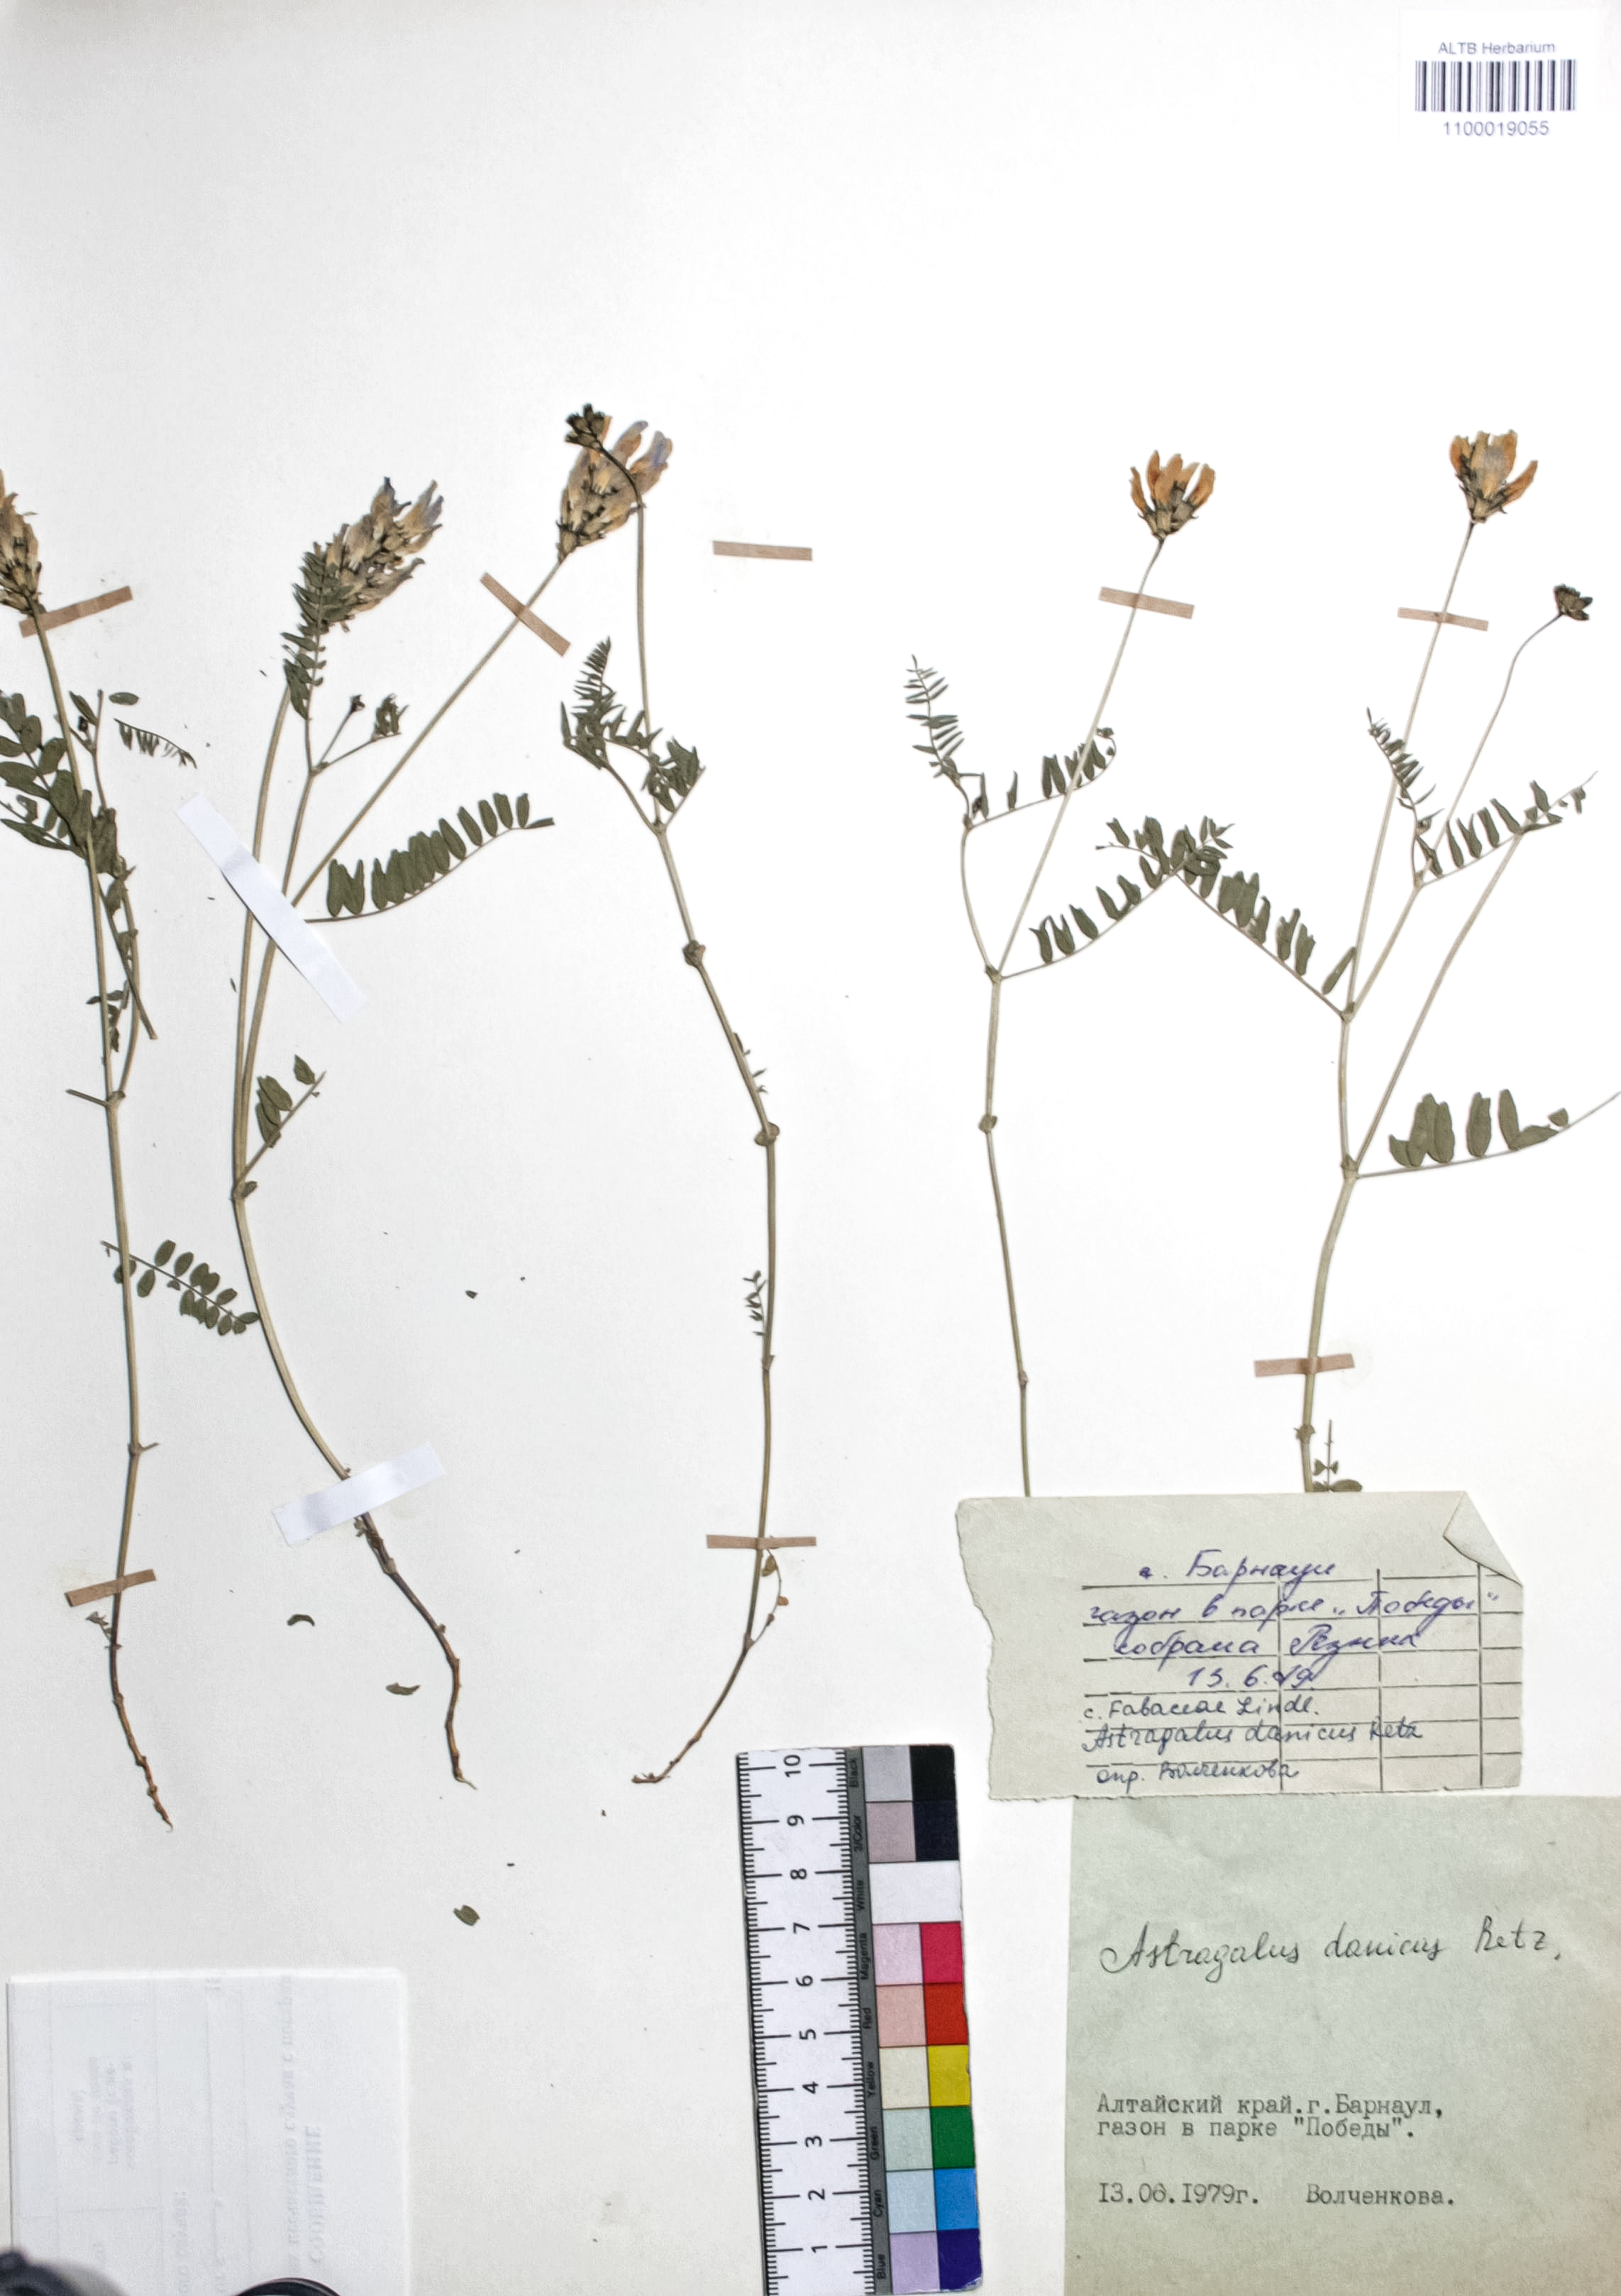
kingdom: Plantae
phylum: Tracheophyta
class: Magnoliopsida
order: Fabales
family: Fabaceae
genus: Astragalus
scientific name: Astragalus danicus
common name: Purple milk-vetch
